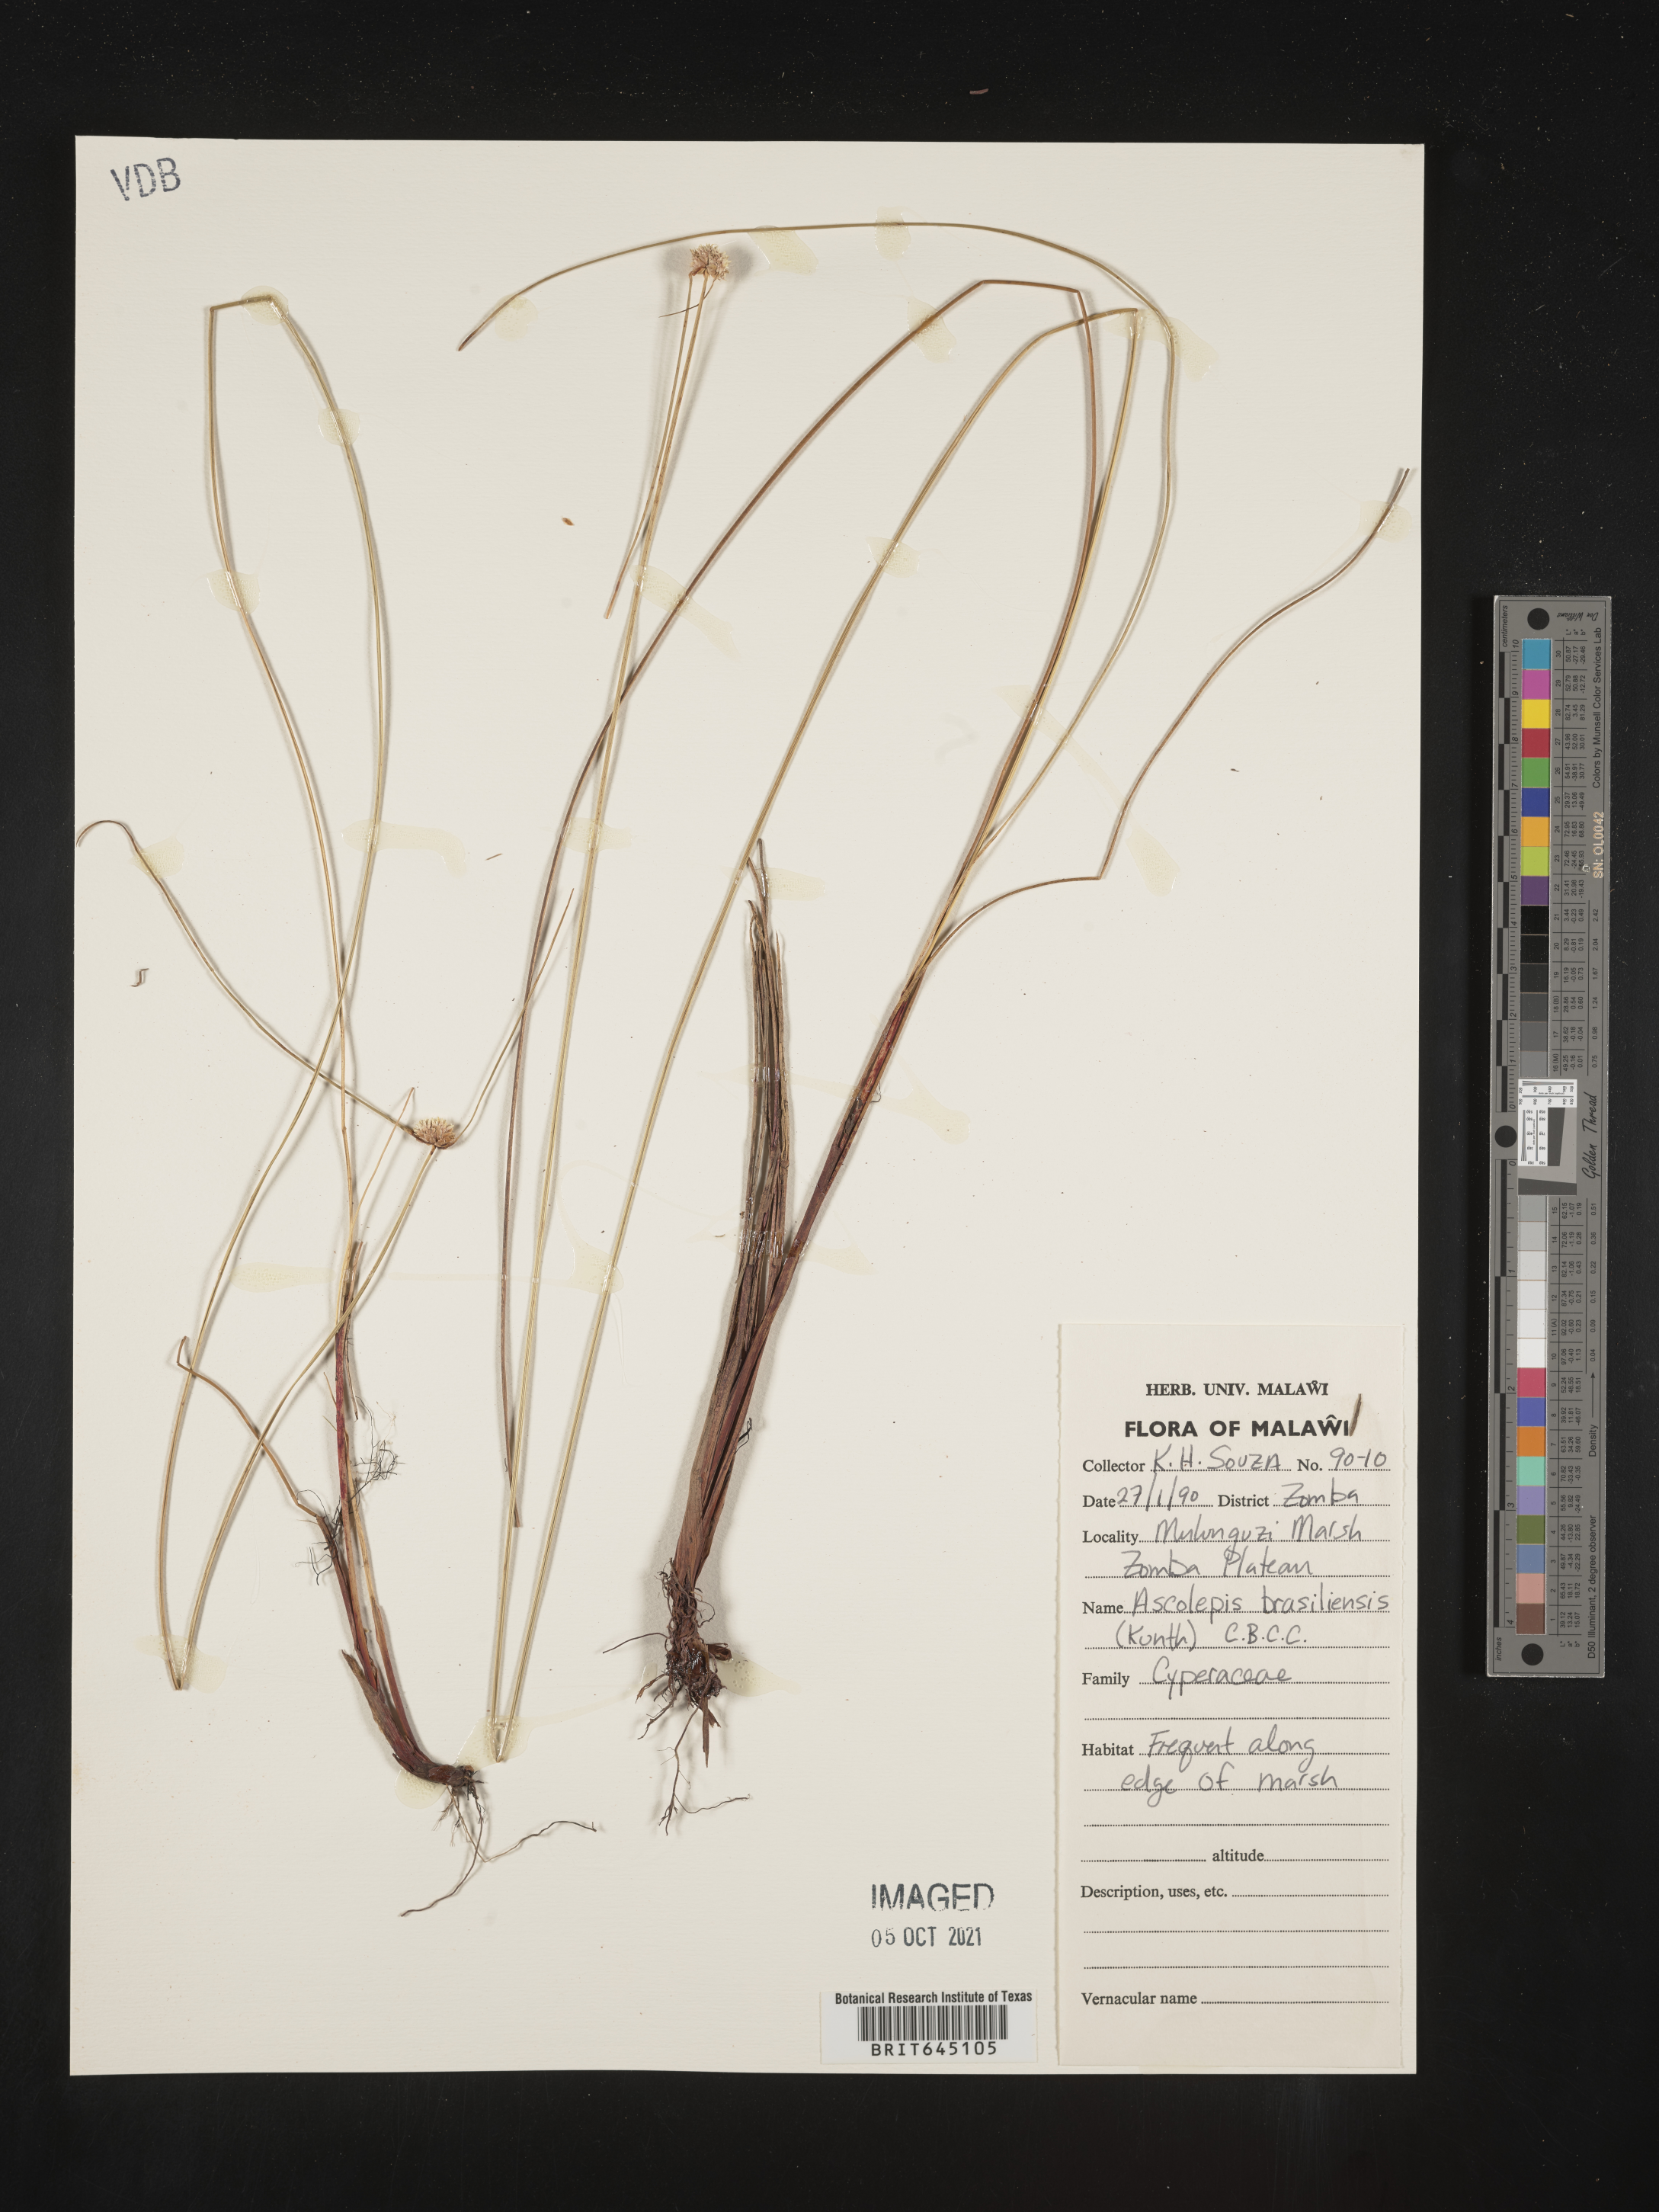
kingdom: Plantae
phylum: Tracheophyta
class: Liliopsida
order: Poales
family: Cyperaceae
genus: Cyperus
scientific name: Cyperus brasiliensis
